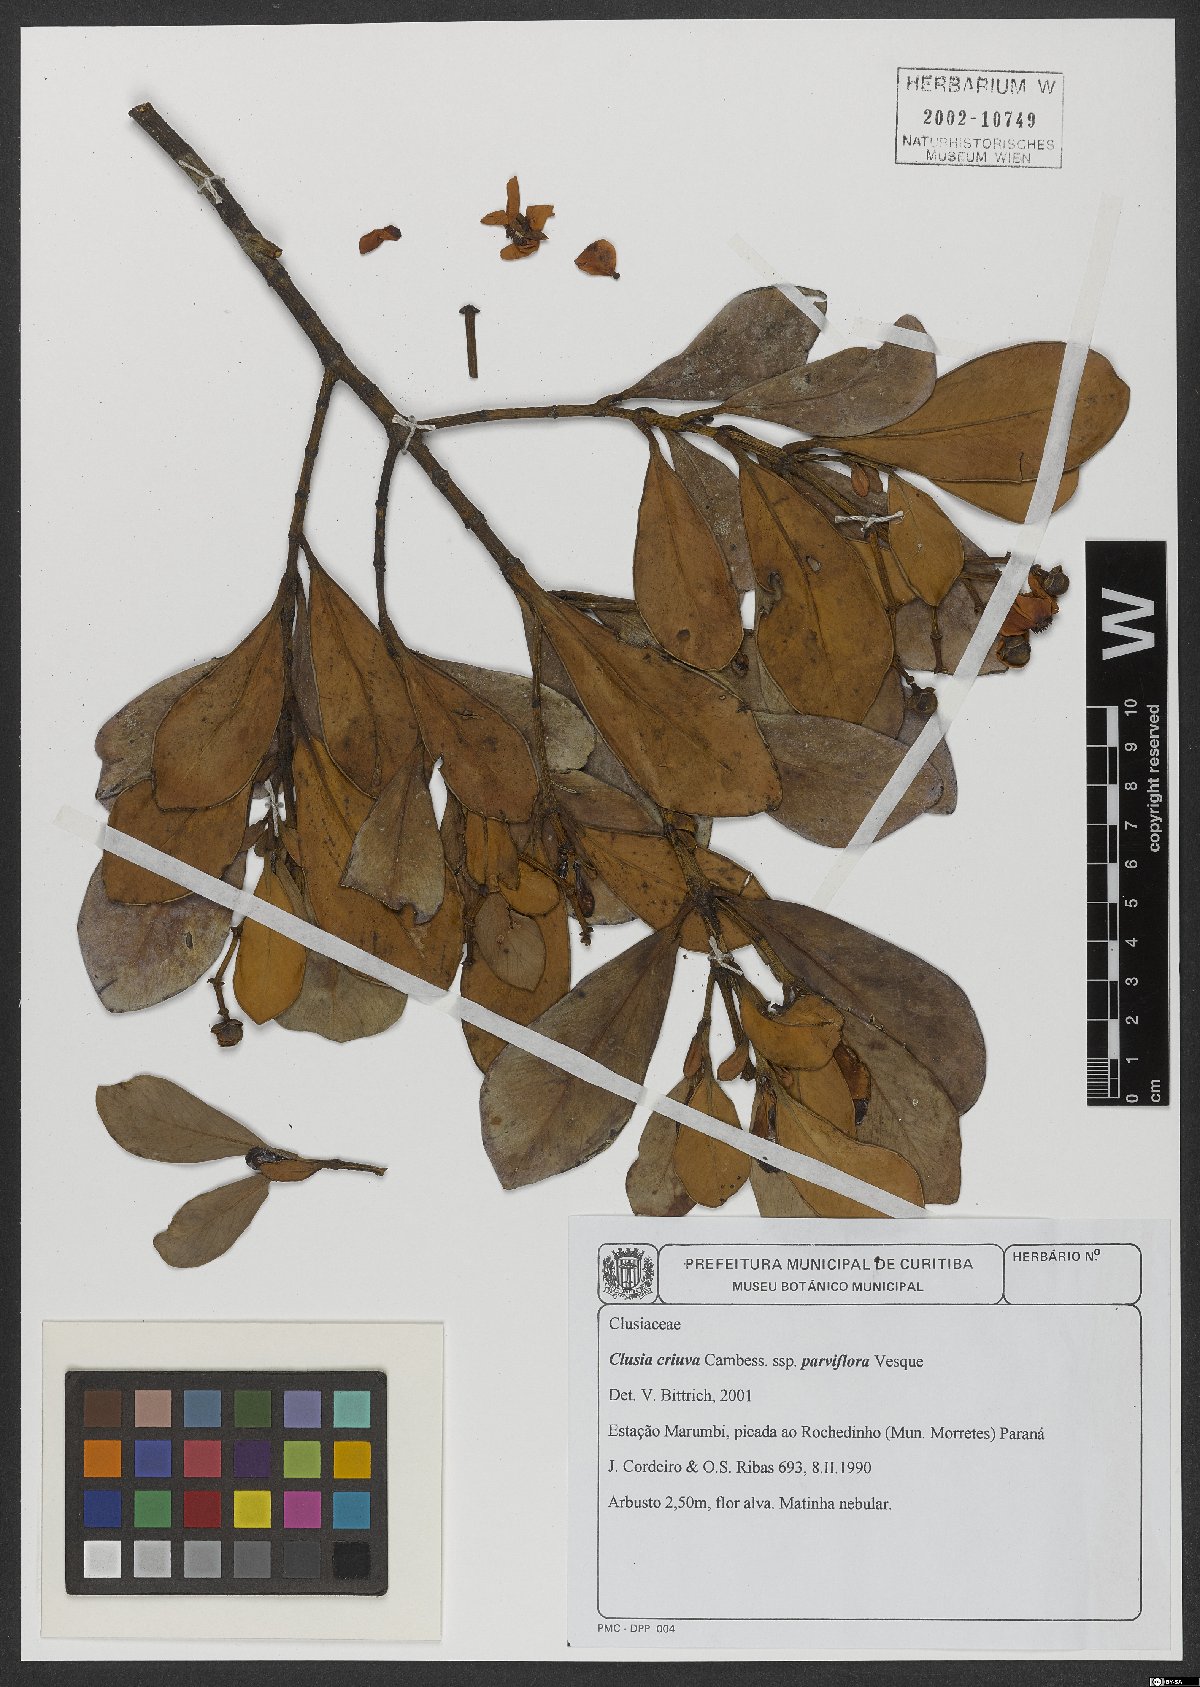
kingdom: Plantae
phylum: Tracheophyta
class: Magnoliopsida
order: Malpighiales
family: Clusiaceae
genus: Clusia
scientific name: Clusia criuva
